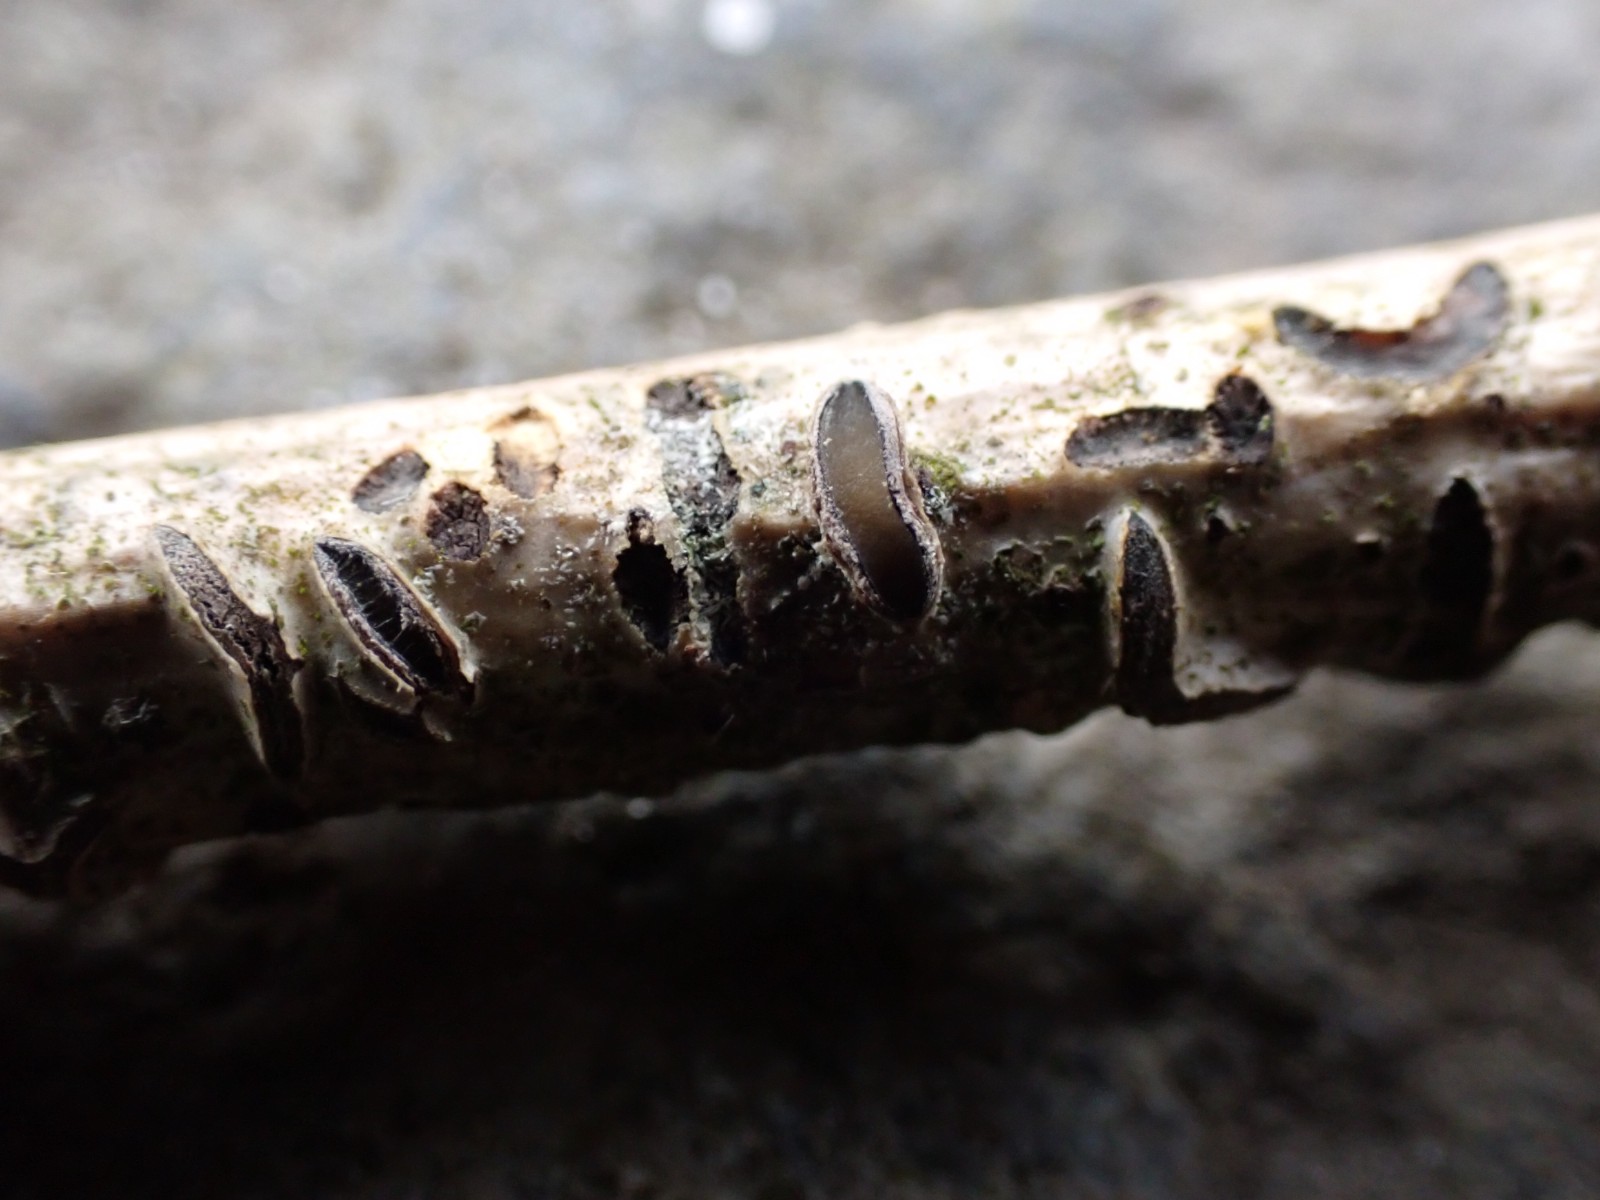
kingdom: Fungi
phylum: Ascomycota
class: Leotiomycetes
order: Rhytismatales
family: Rhytismataceae
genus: Colpoma
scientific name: Colpoma quercinum
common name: ege-sprækkeskive
